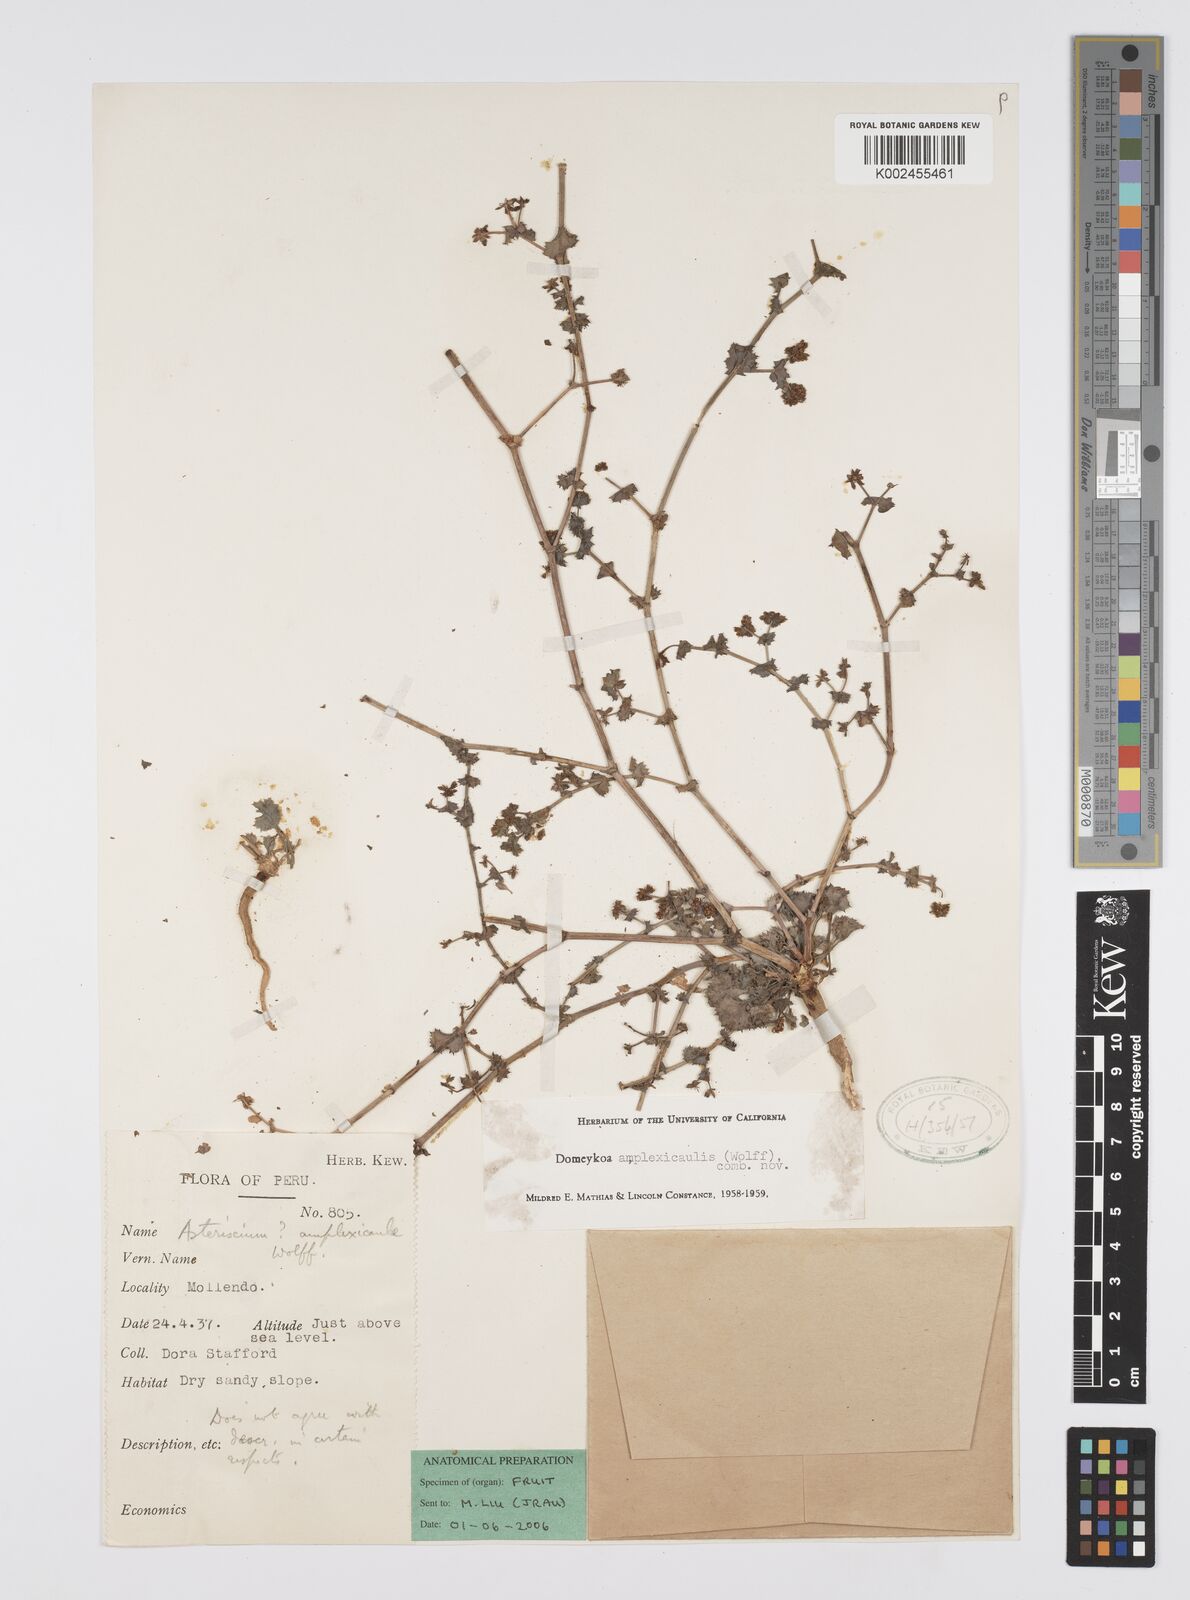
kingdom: Plantae
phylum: Tracheophyta
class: Magnoliopsida
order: Apiales
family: Apiaceae
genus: Domeykoa
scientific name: Domeykoa amplexicaulis
